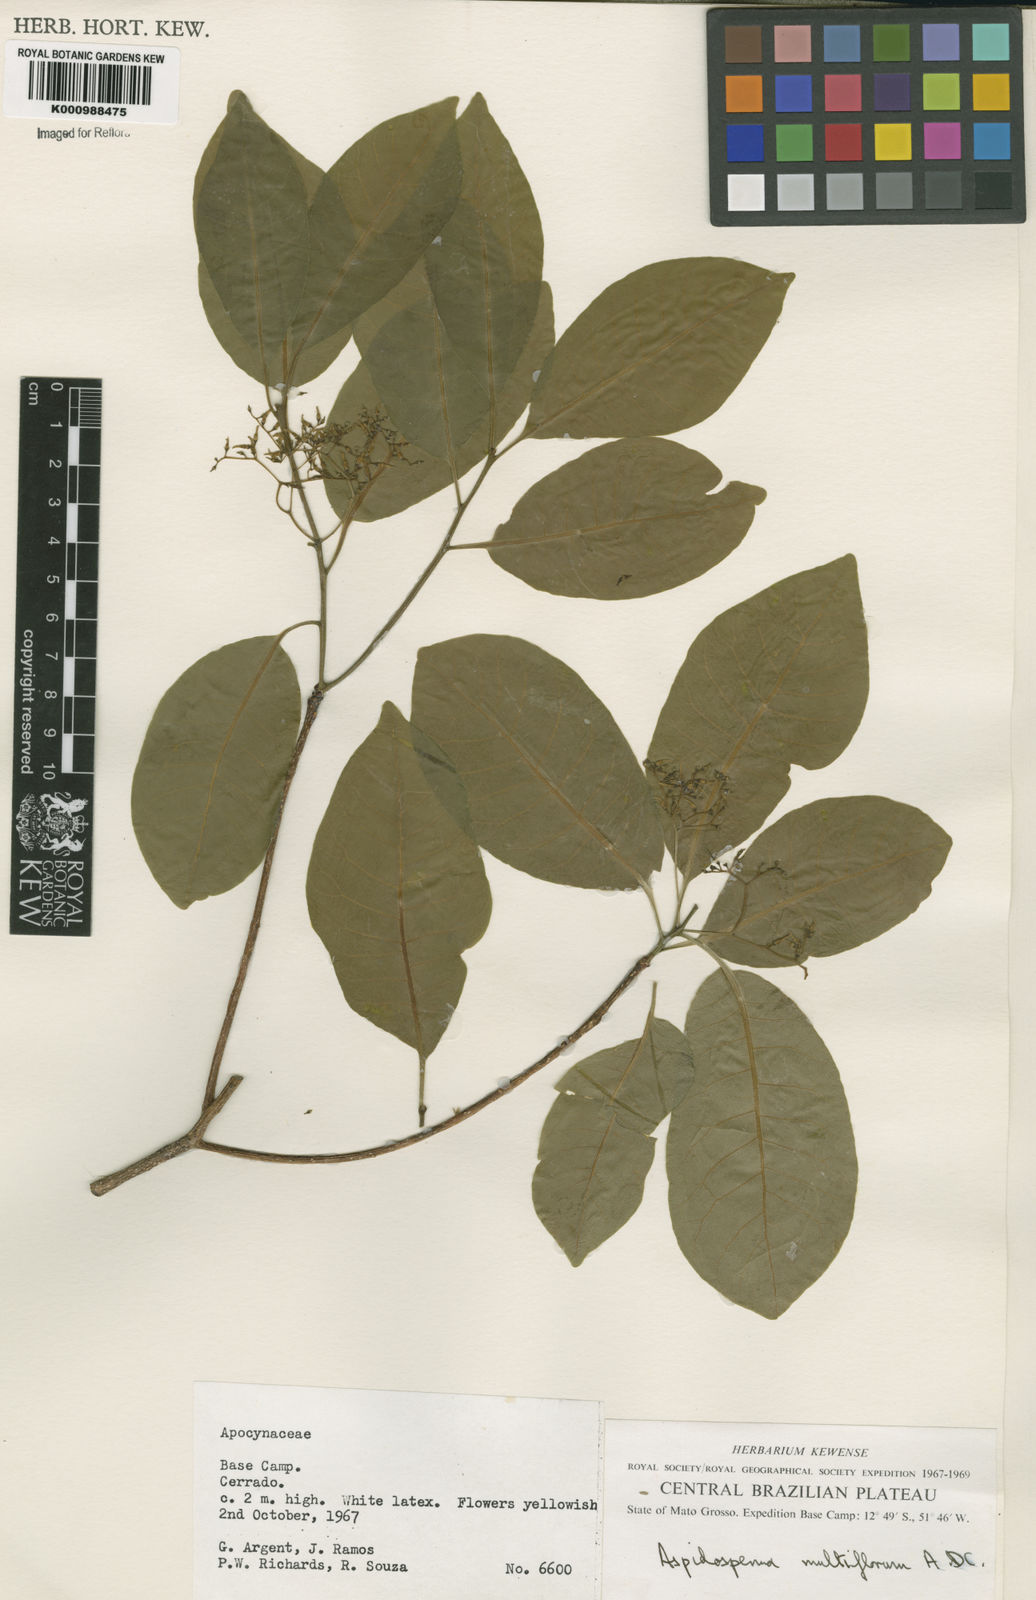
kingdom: Plantae
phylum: Tracheophyta
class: Magnoliopsida
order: Gentianales
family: Apocynaceae
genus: Aspidosperma
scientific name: Aspidosperma multiflorum
